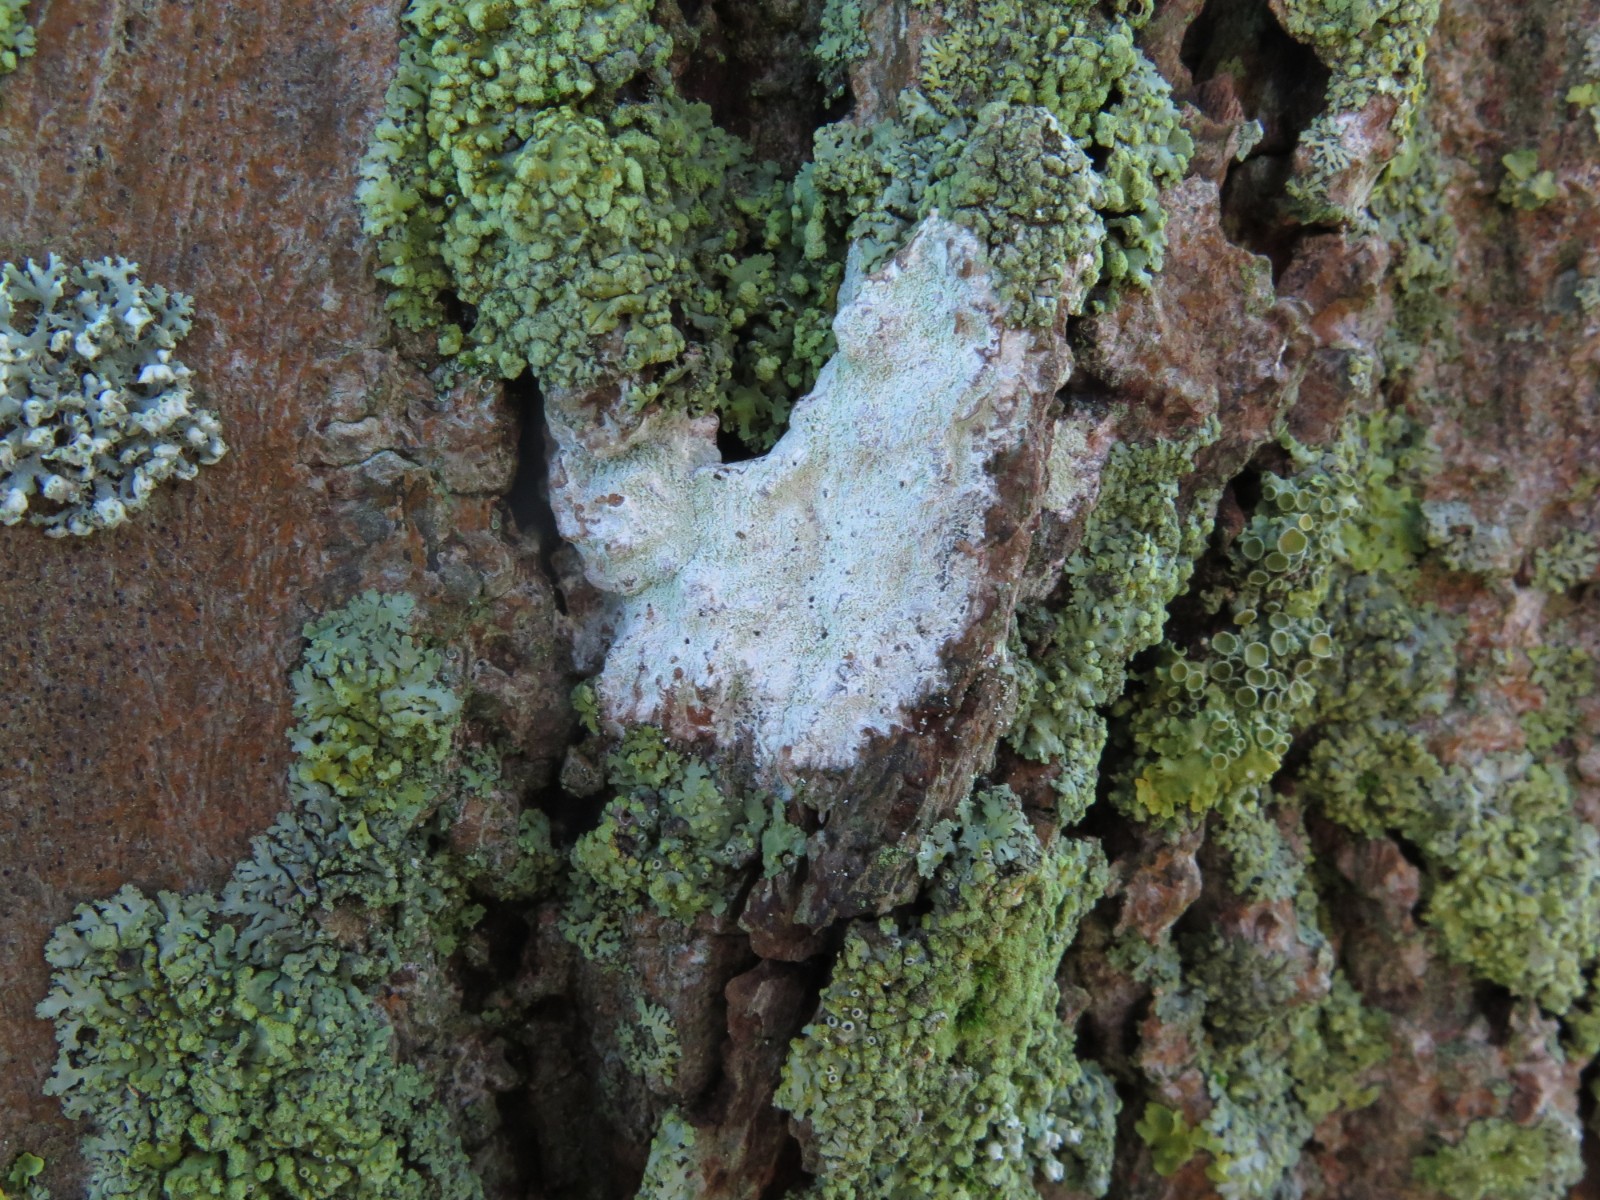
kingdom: Fungi
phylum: Ascomycota
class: Lecanoromycetes
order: Ostropales
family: Phlyctidaceae
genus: Phlyctis
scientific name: Phlyctis argena
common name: almindelig sølvlav
